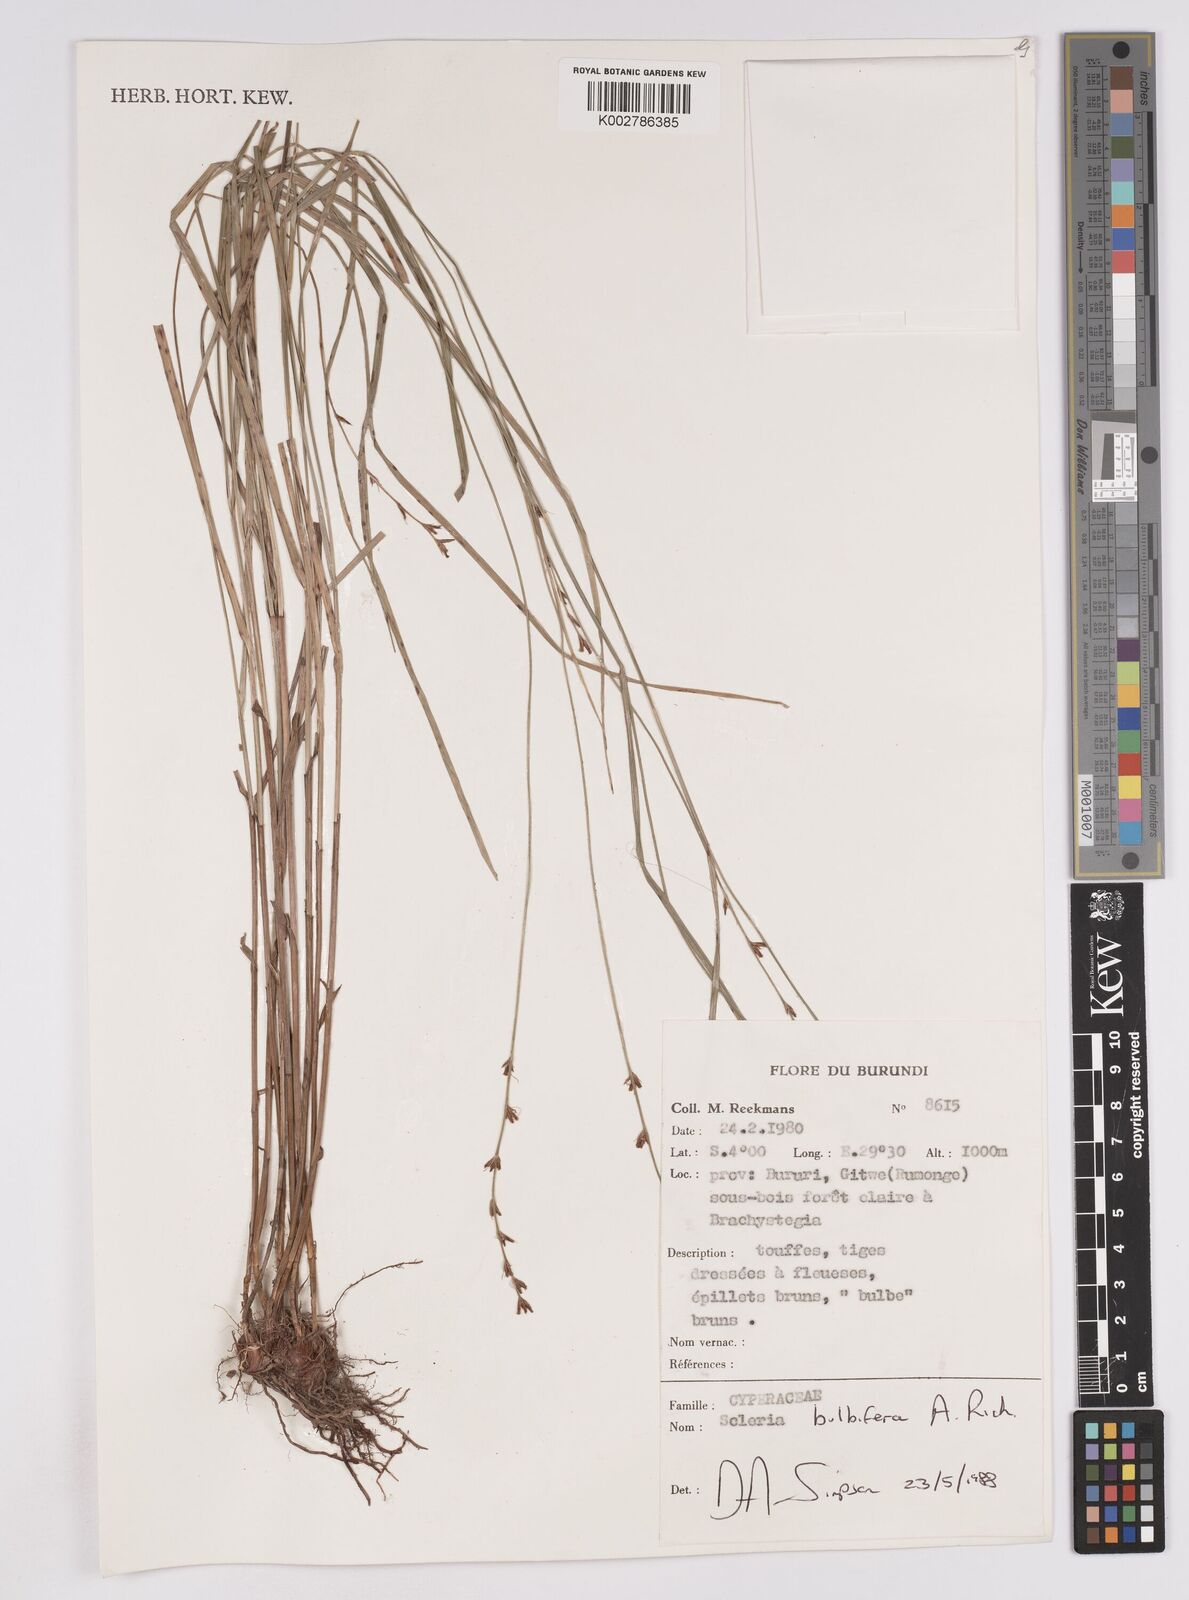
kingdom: Plantae
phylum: Tracheophyta
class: Liliopsida
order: Poales
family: Cyperaceae
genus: Scleria
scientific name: Scleria bulbifera
